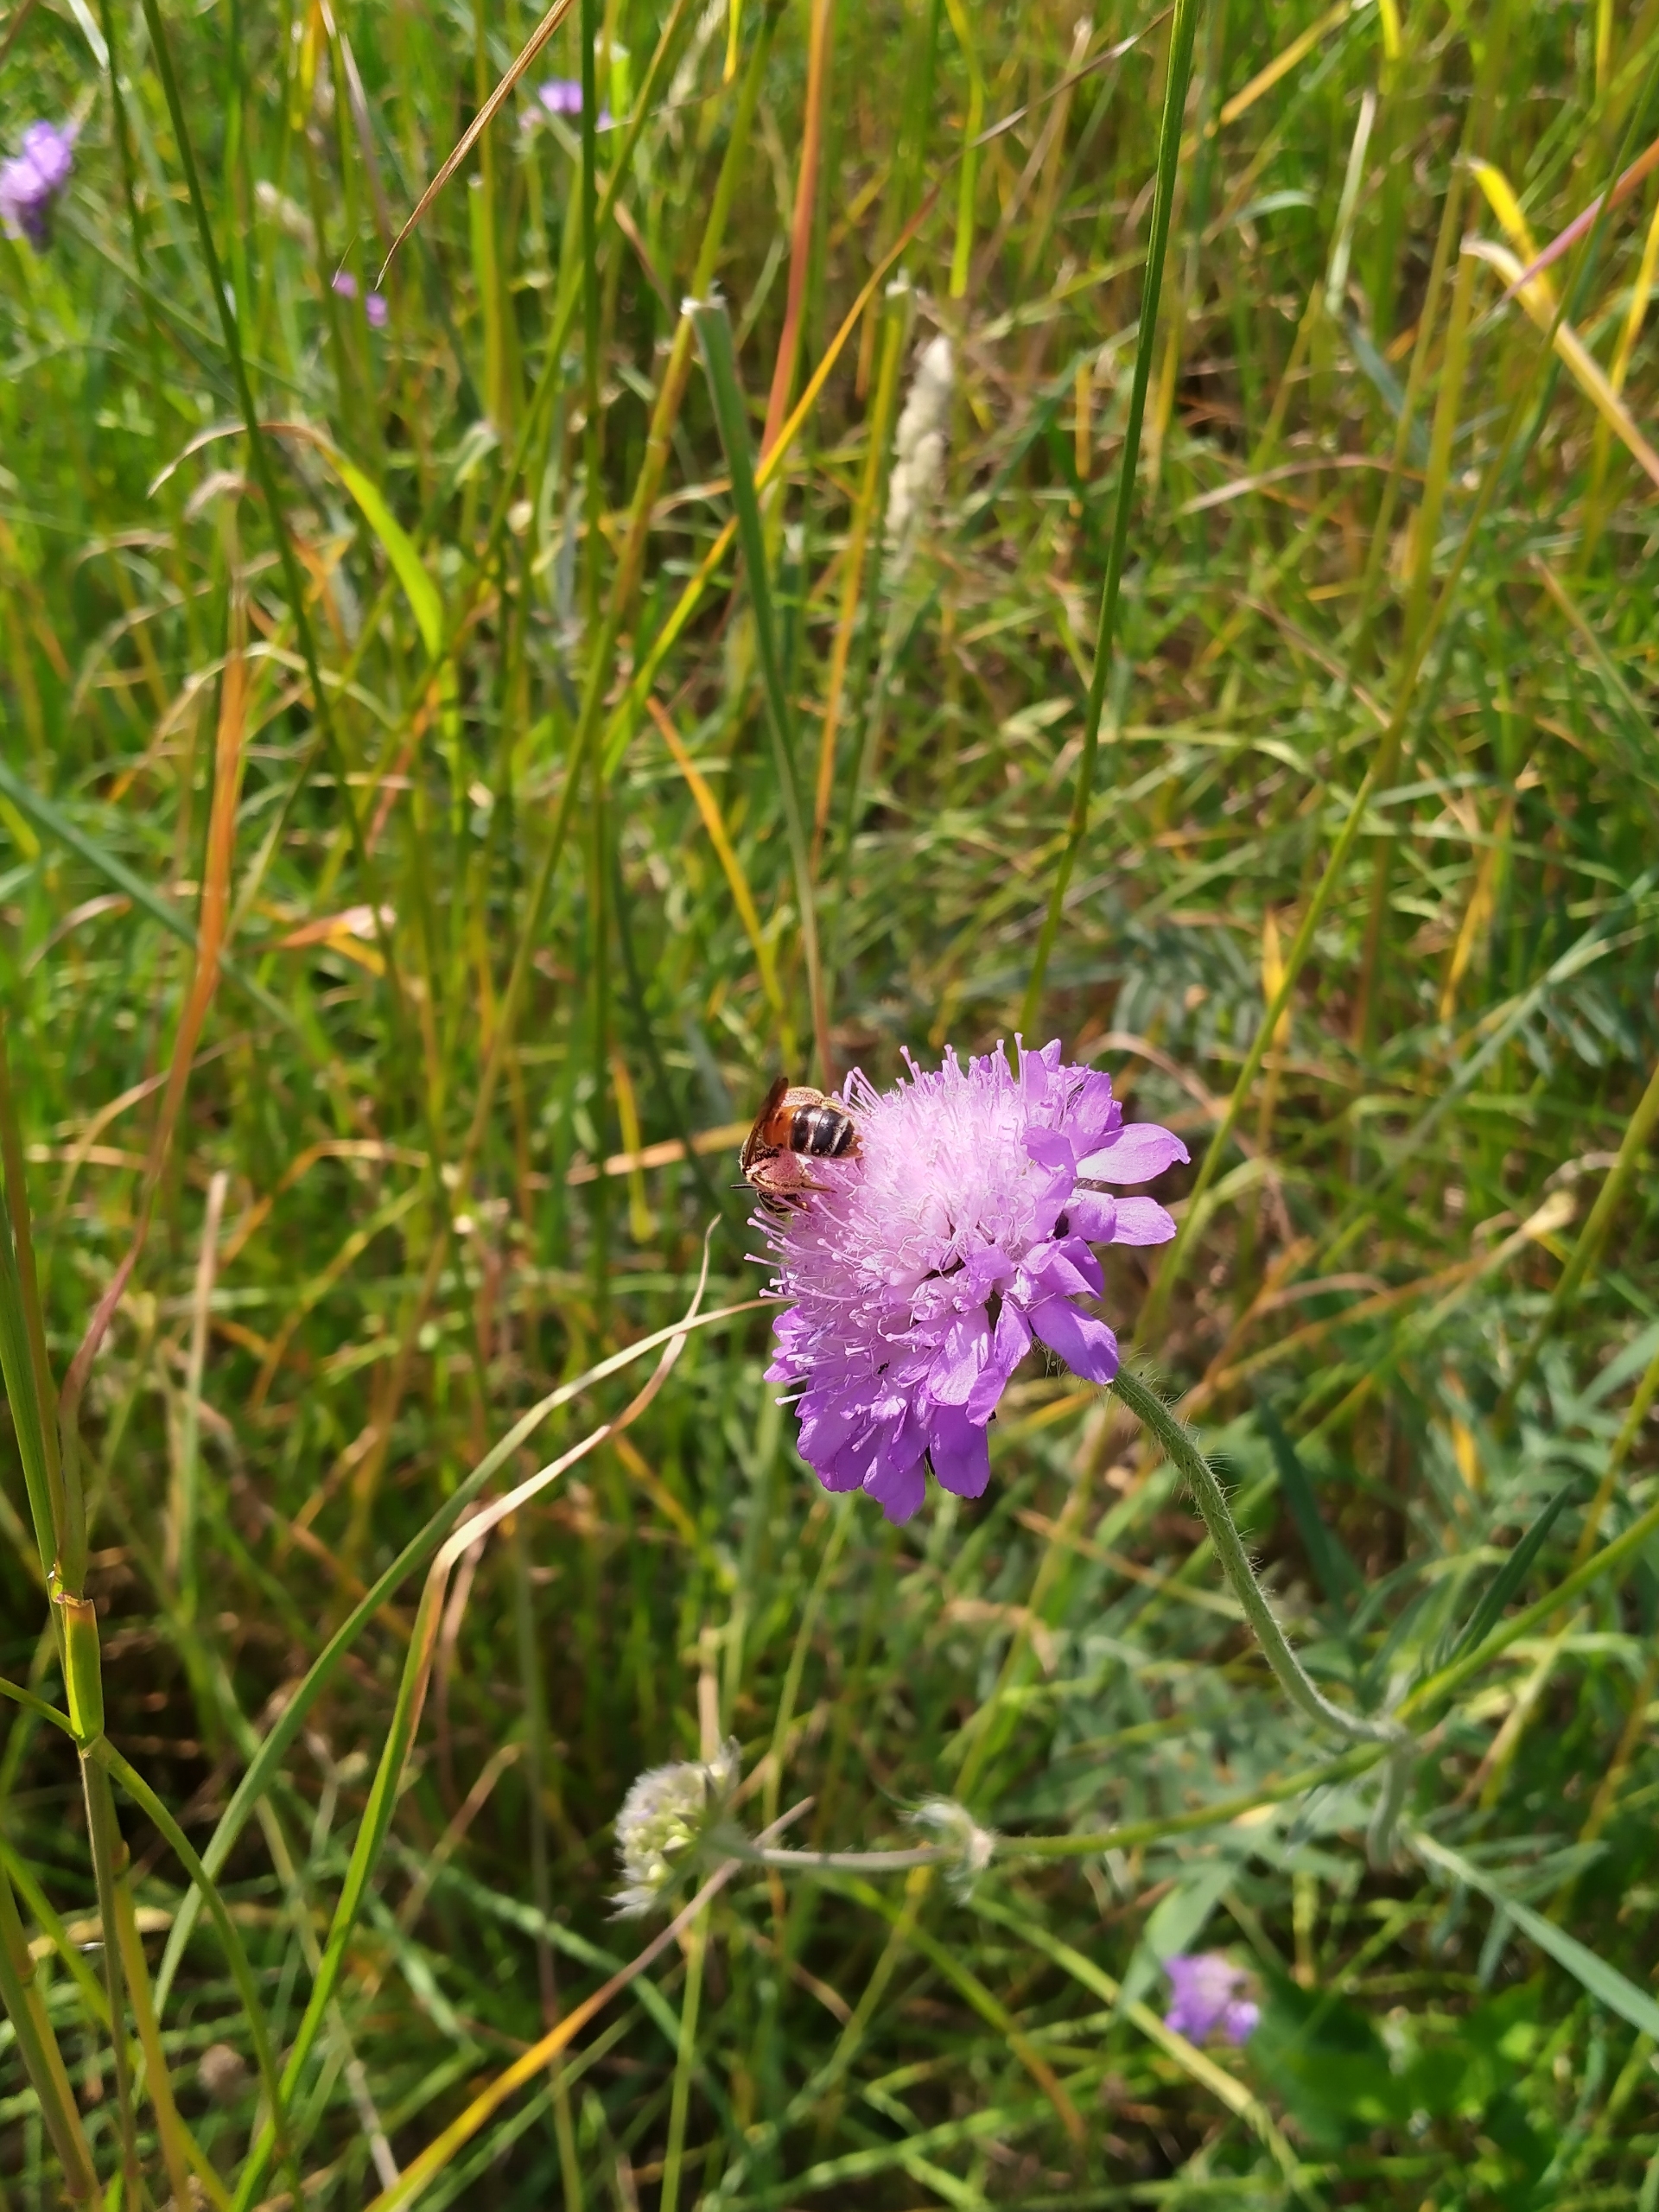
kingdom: Animalia
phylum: Arthropoda
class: Insecta
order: Hymenoptera
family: Andrenidae
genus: Andrena
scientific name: Andrena hattorfiana
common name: Blåhatjordbi
